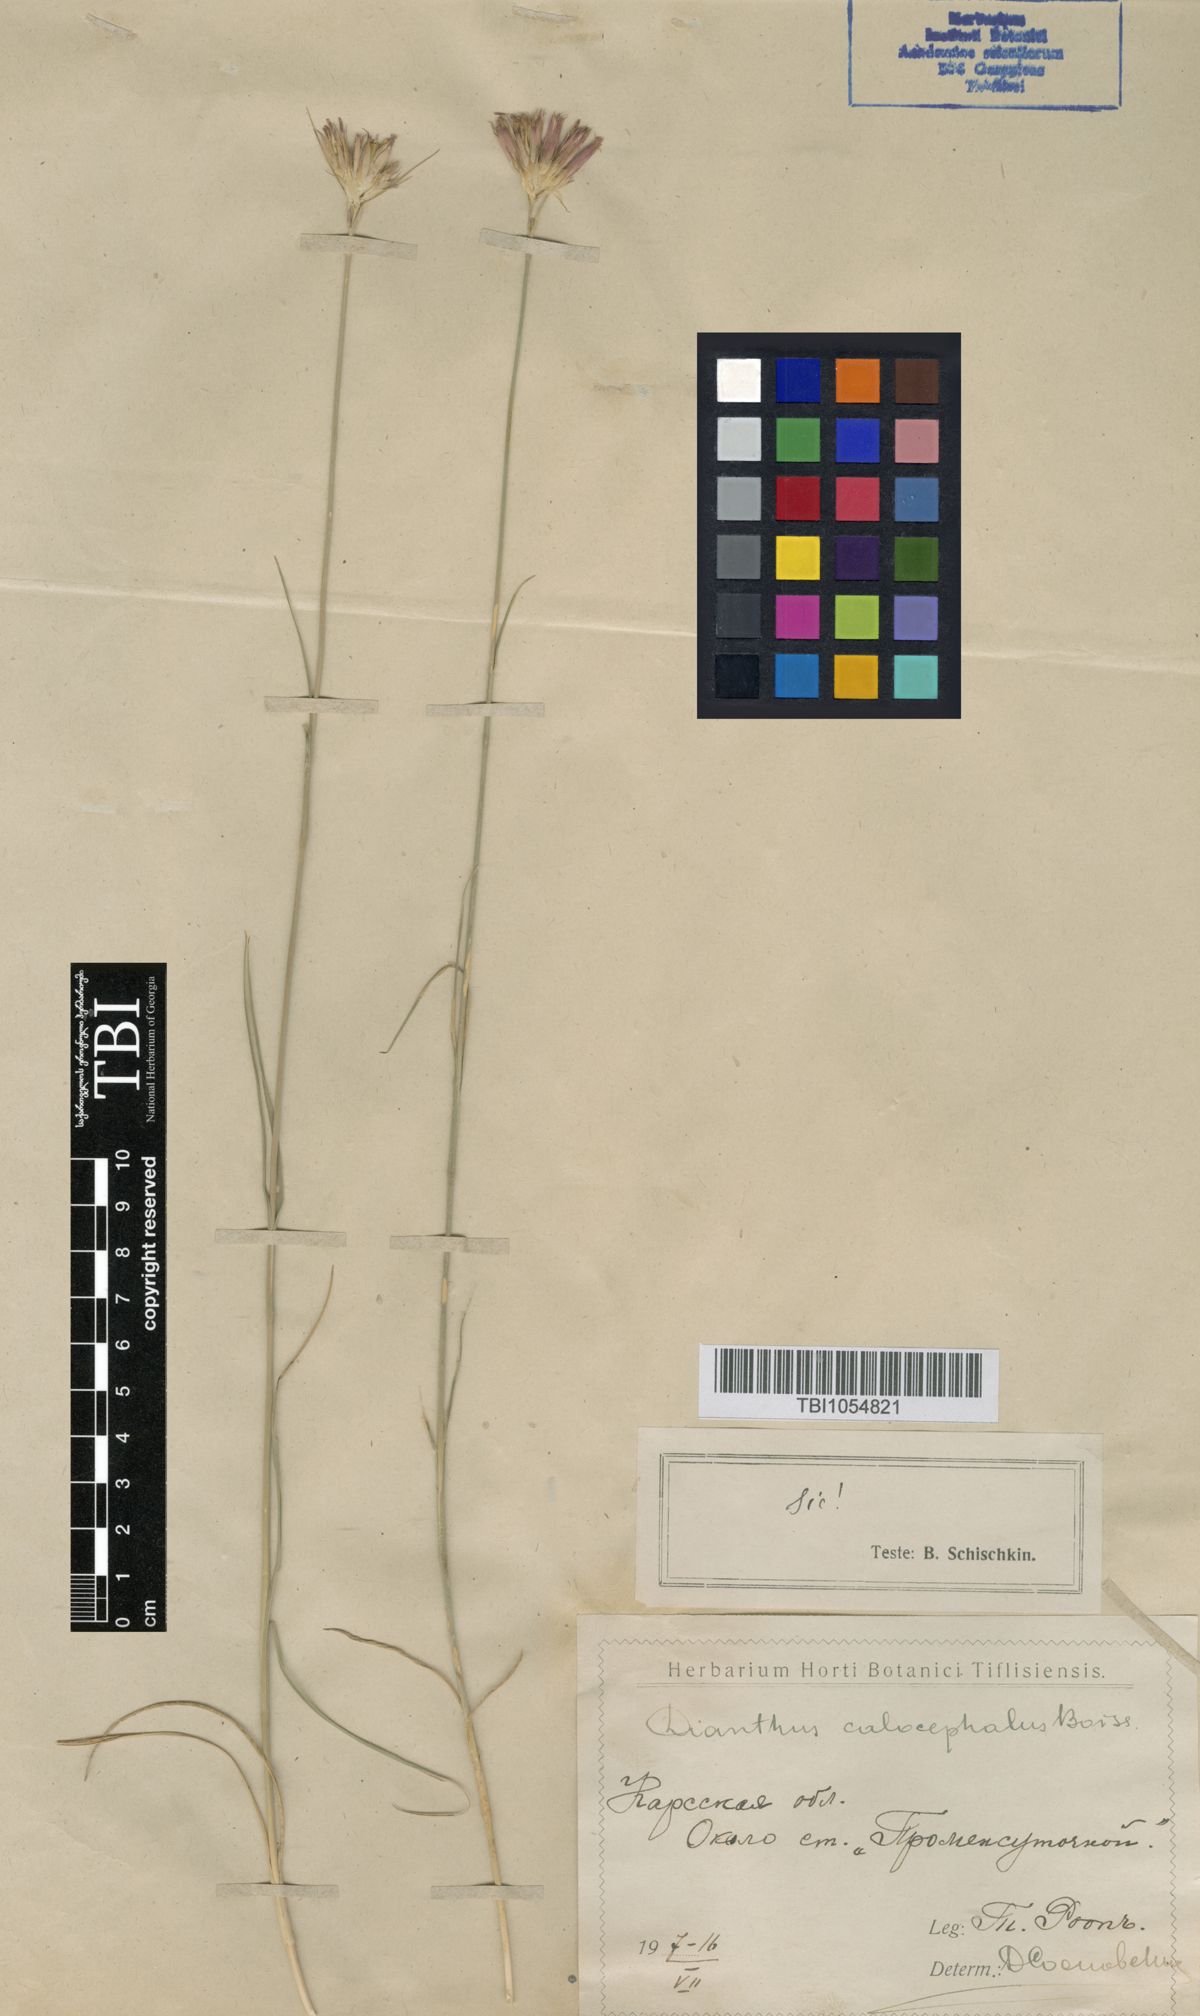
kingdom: Plantae
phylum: Tracheophyta
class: Magnoliopsida
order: Caryophyllales
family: Caryophyllaceae
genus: Dianthus
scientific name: Dianthus cruentus
